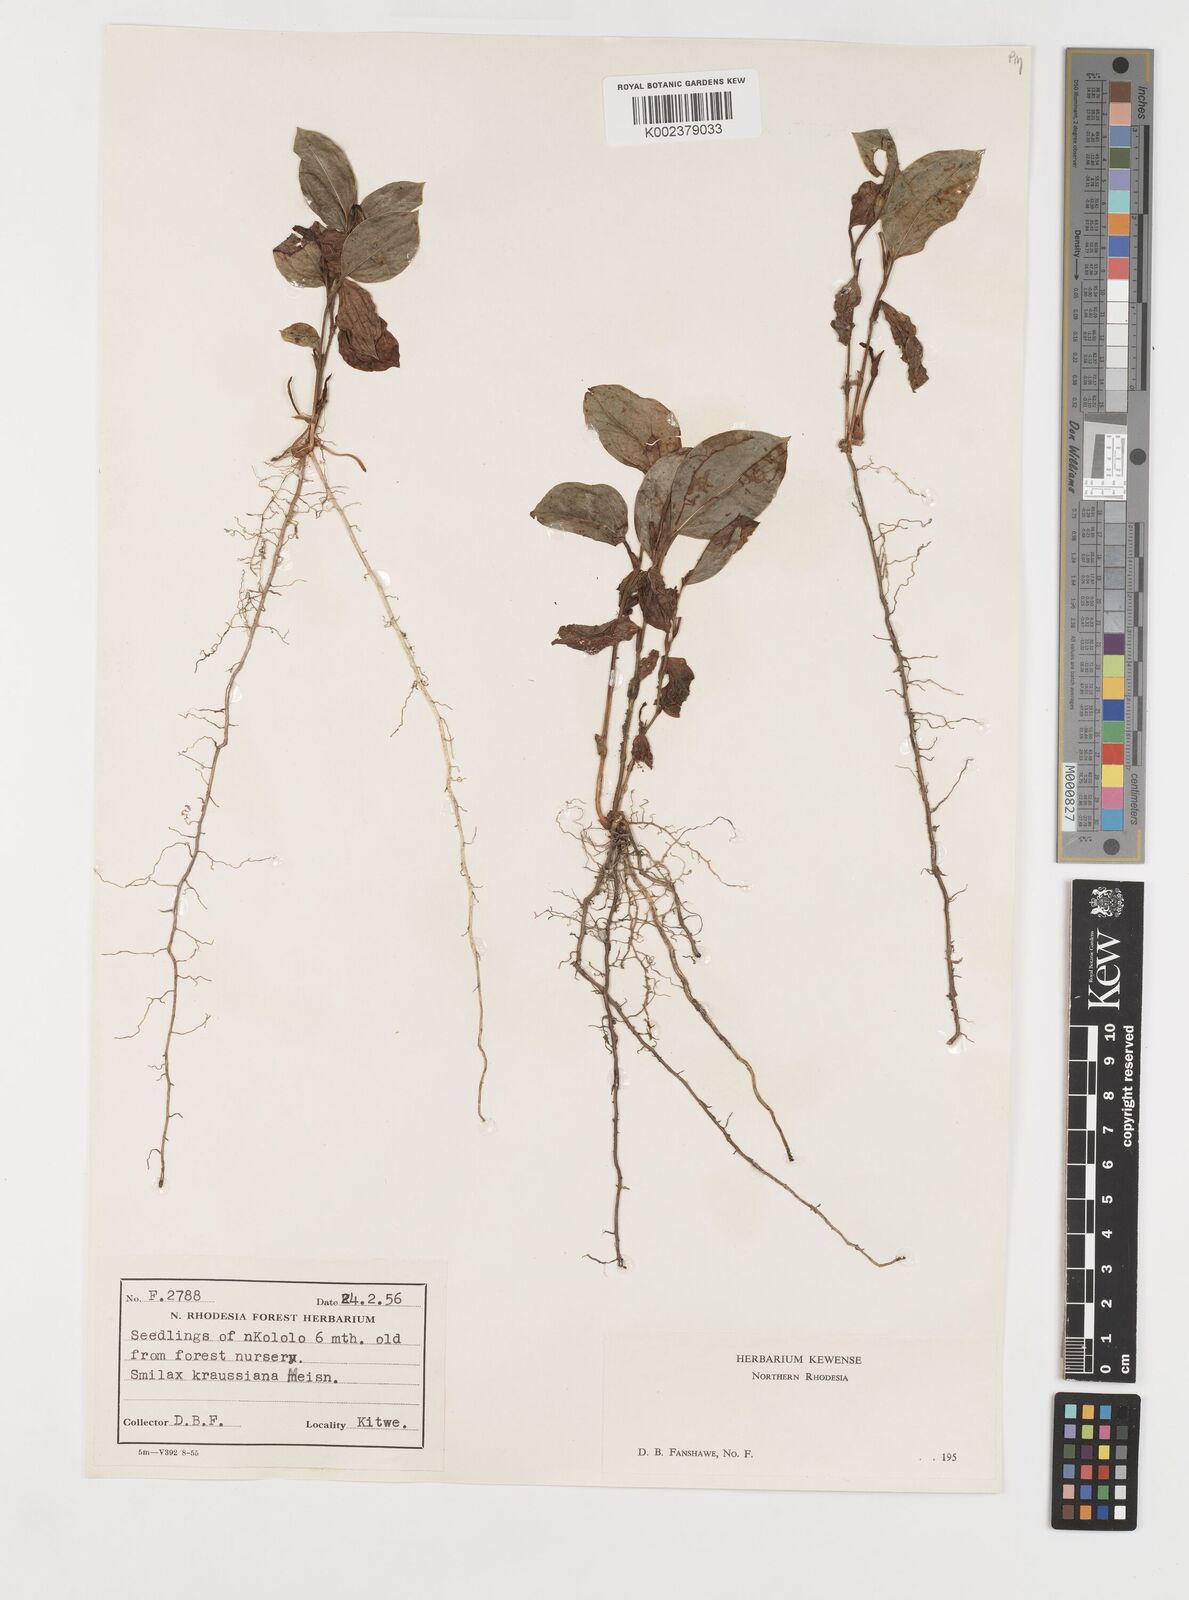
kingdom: Plantae
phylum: Tracheophyta
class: Liliopsida
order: Liliales
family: Smilacaceae
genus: Smilax
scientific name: Smilax anceps
